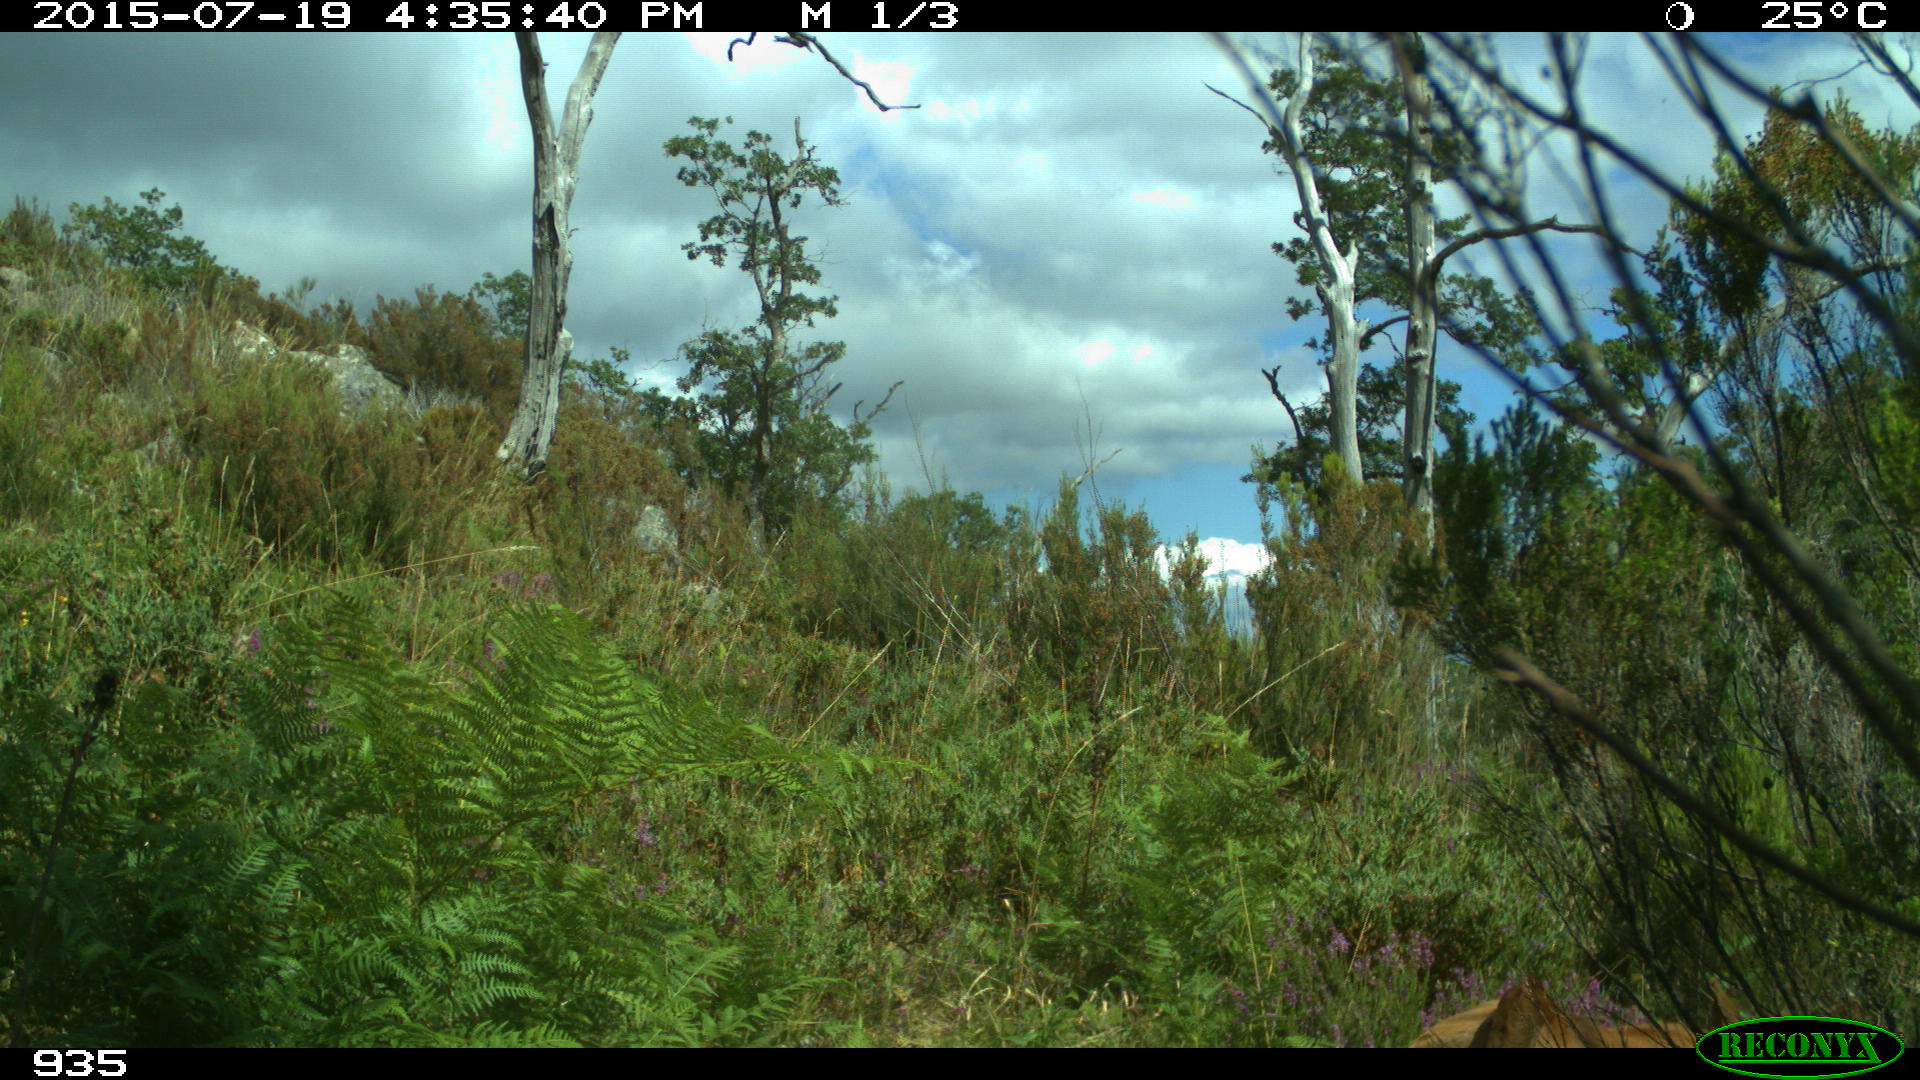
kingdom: Animalia
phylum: Chordata
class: Mammalia
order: Artiodactyla
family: Bovidae
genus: Bos
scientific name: Bos taurus
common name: Domesticated cattle
